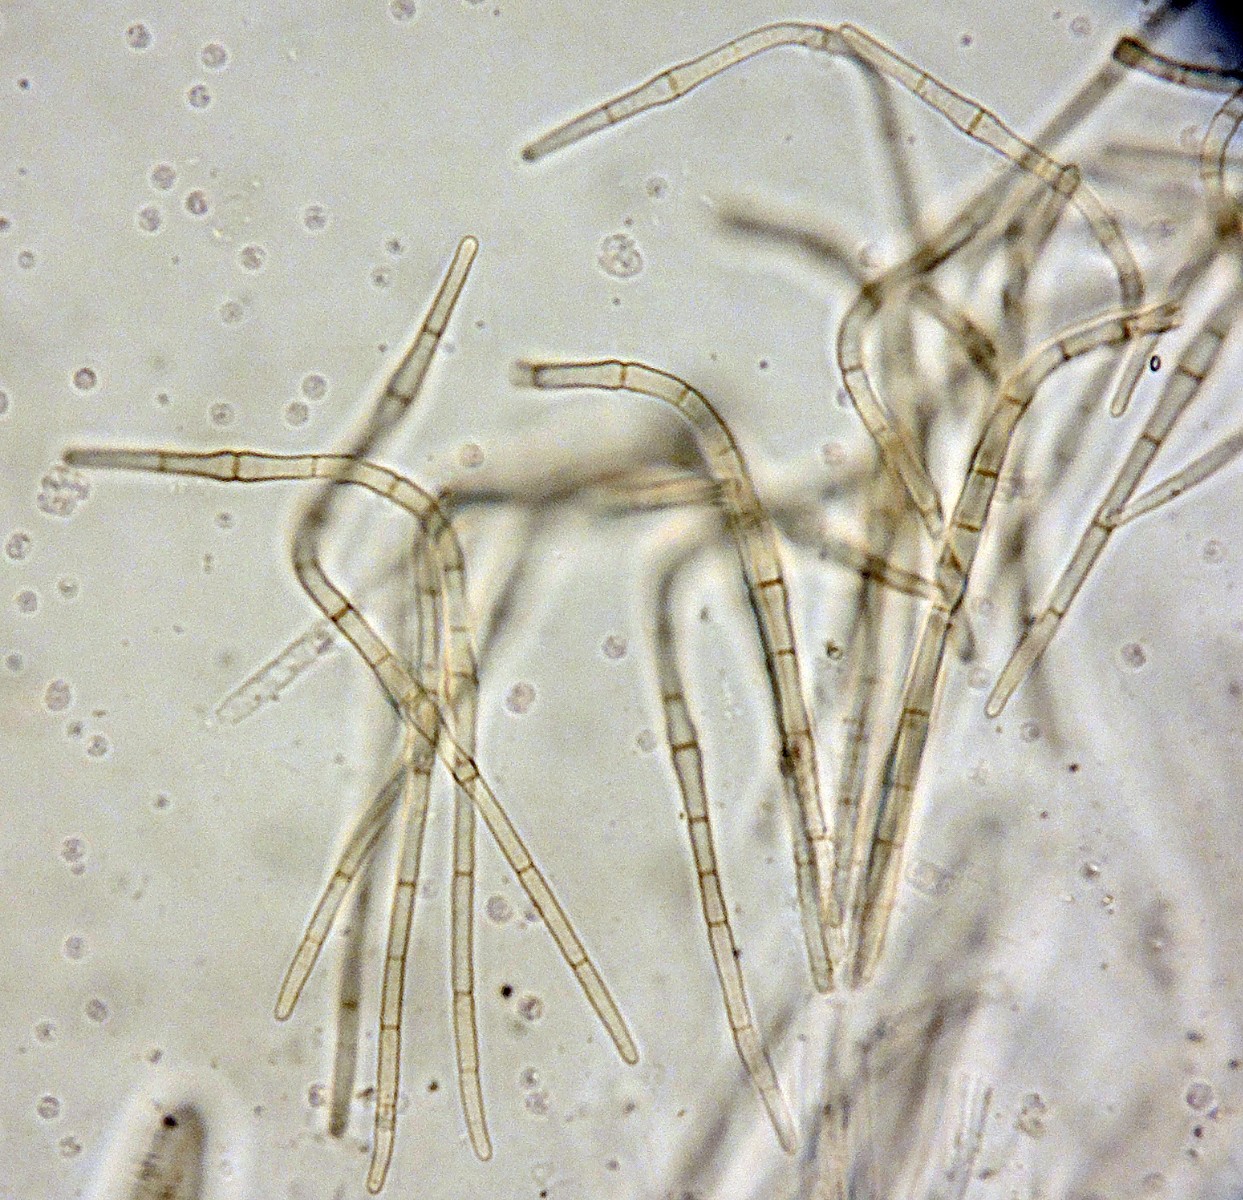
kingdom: Fungi
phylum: Ascomycota
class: Dothideomycetes
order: Pleosporales
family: Phaeosphaeriaceae
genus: Ophiobolopsis
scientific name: Ophiobolopsis italica
